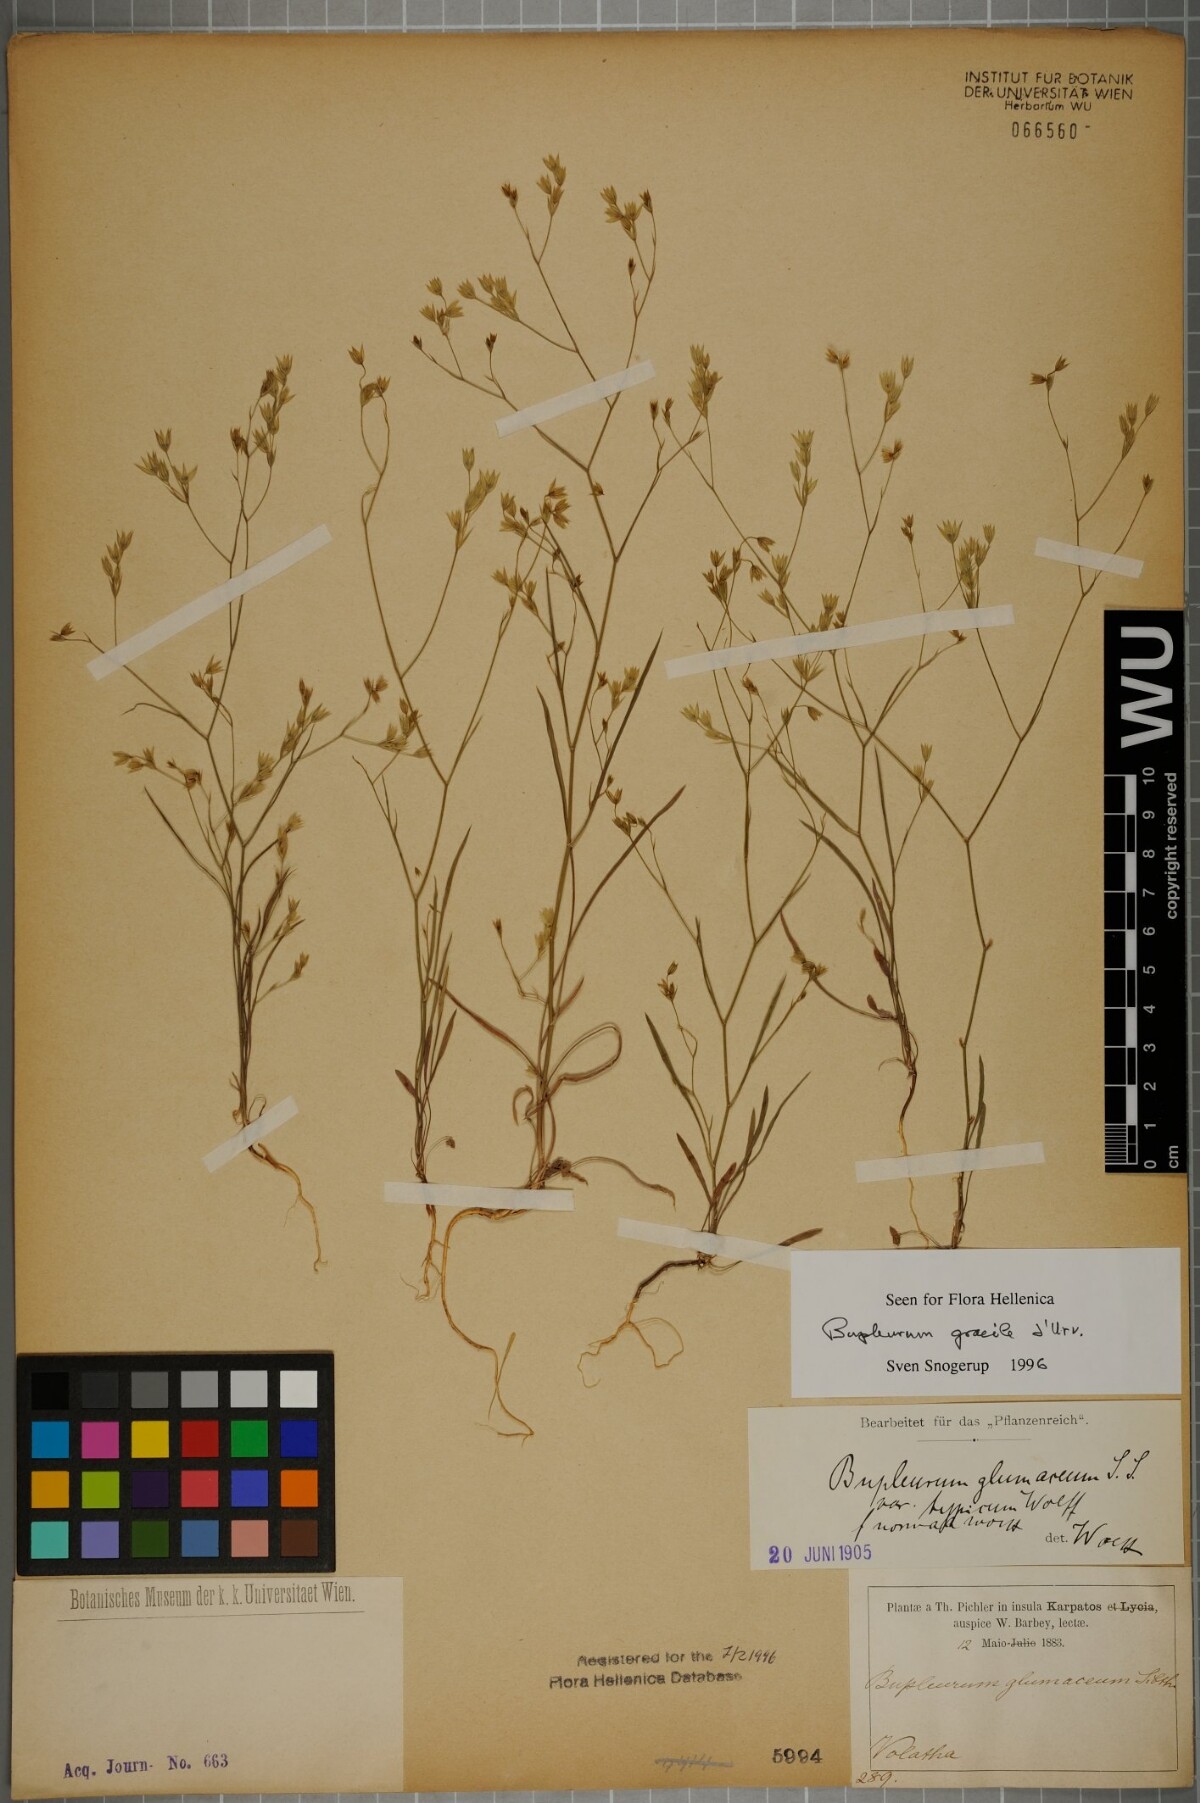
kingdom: Plantae
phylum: Tracheophyta
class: Magnoliopsida
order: Apiales
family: Apiaceae
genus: Bupleurum
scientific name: Bupleurum gracile
